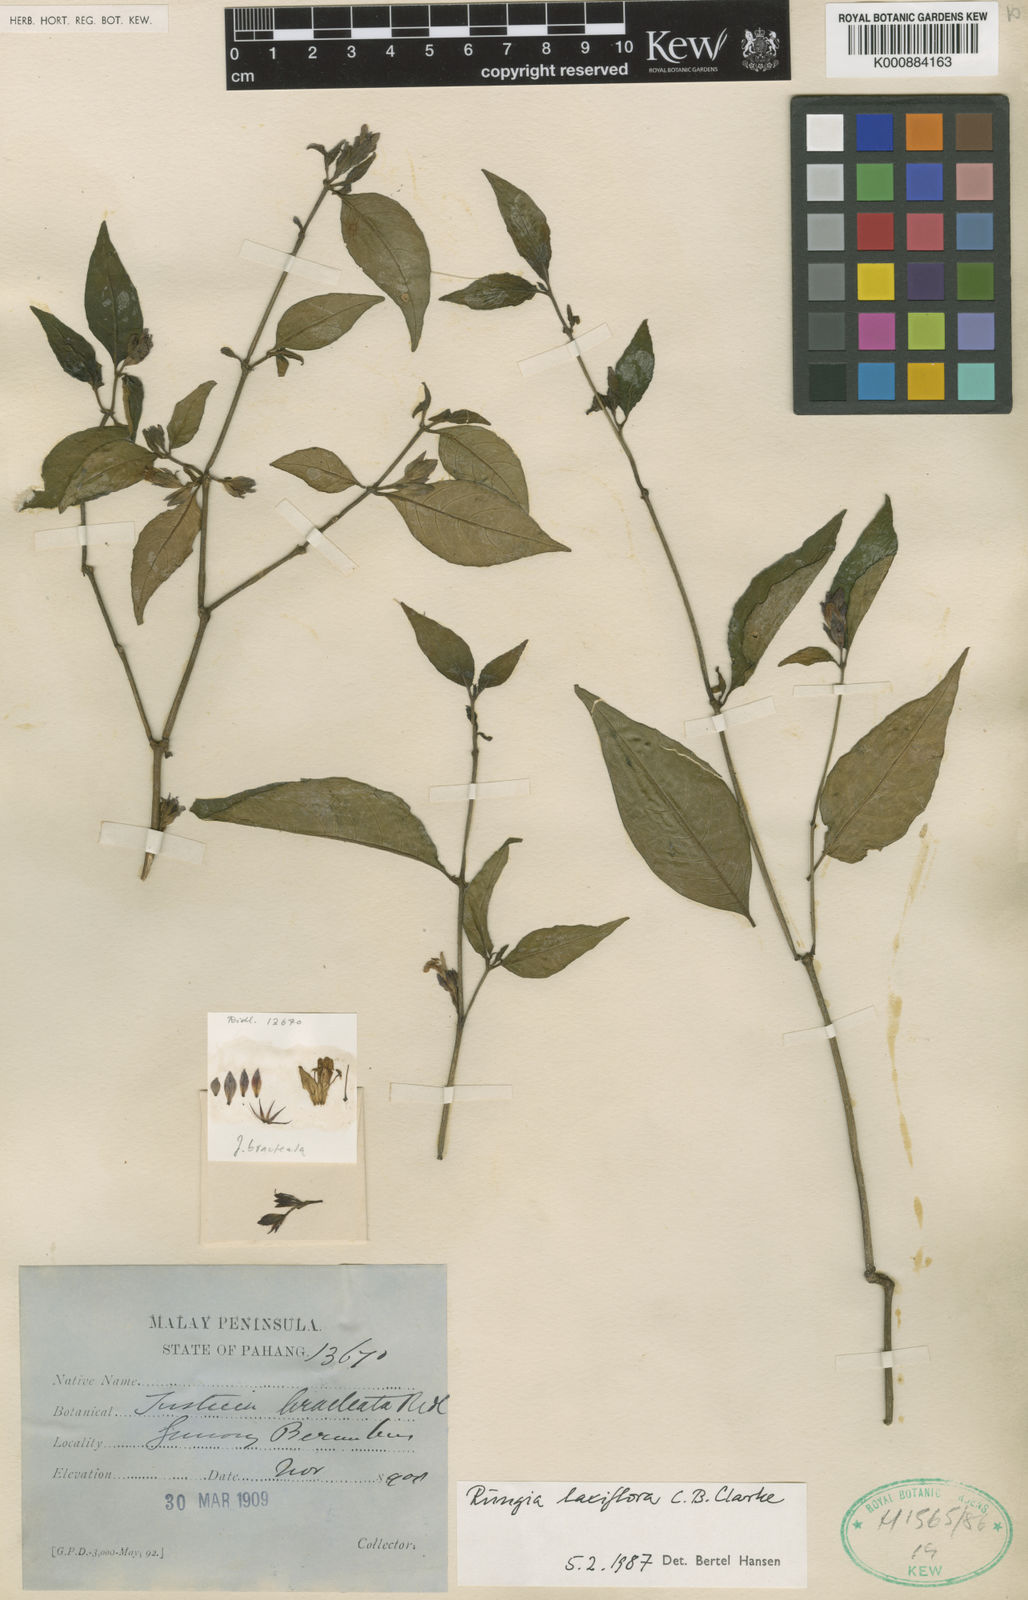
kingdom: Plantae
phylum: Tracheophyta
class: Magnoliopsida
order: Lamiales
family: Acanthaceae
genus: Haplanthus
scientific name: Haplanthus laxiflorus
